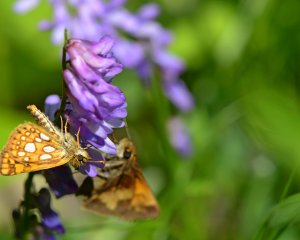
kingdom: Animalia
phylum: Arthropoda
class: Insecta
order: Lepidoptera
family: Hesperiidae
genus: Carterocephalus
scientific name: Carterocephalus palaemon
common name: Chequered Skipper
